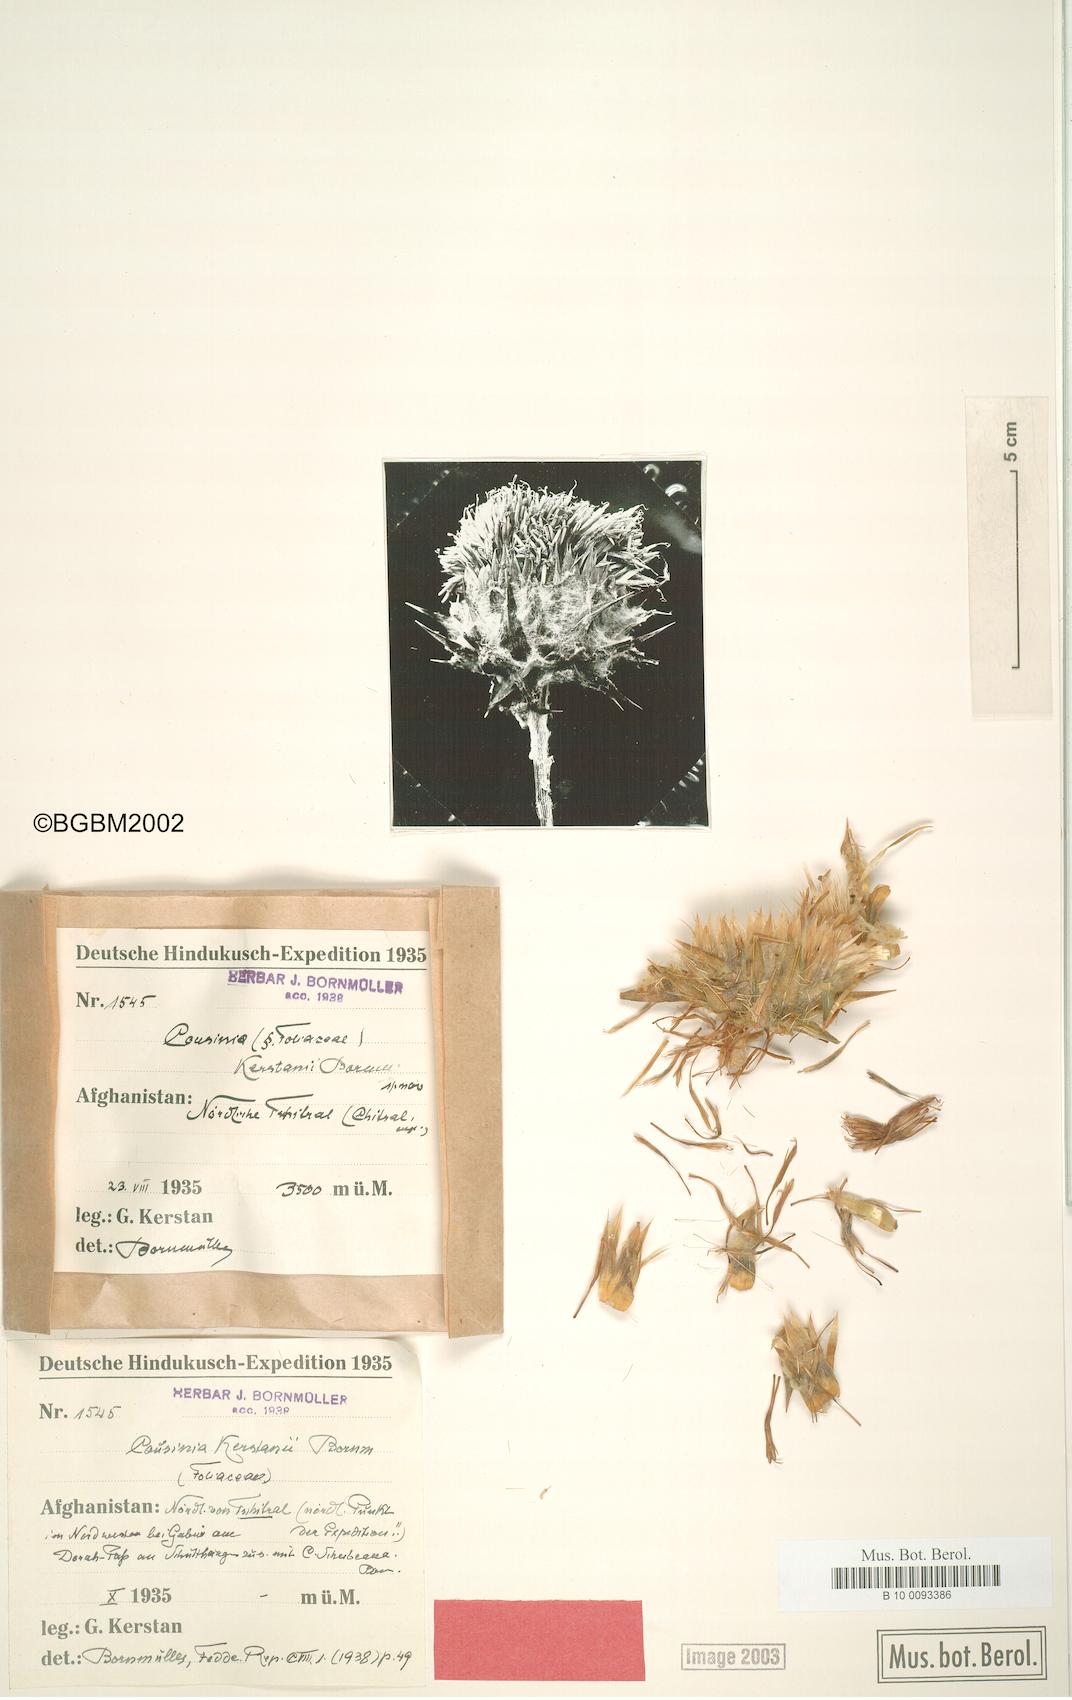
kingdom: Plantae
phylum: Tracheophyta
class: Magnoliopsida
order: Asterales
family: Asteraceae
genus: Cousinia
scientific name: Cousinia kerstanii
